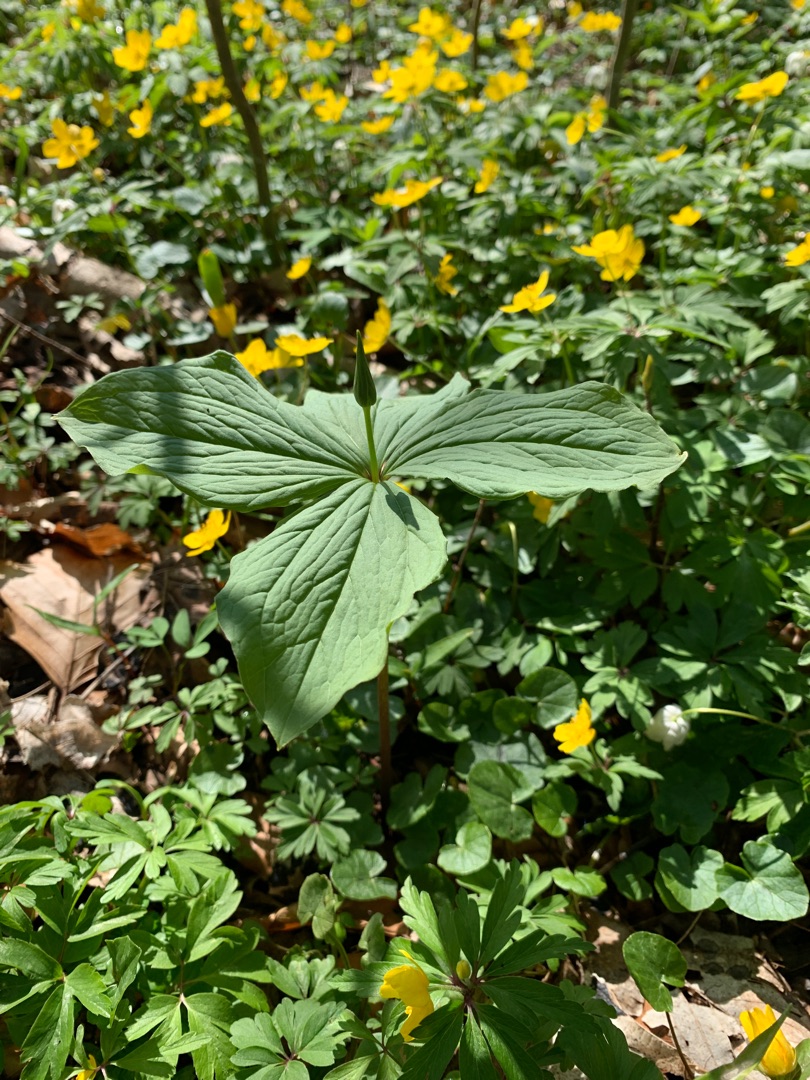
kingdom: Plantae
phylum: Tracheophyta
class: Liliopsida
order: Liliales
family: Melanthiaceae
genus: Paris
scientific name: Paris quadrifolia
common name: Firblad
